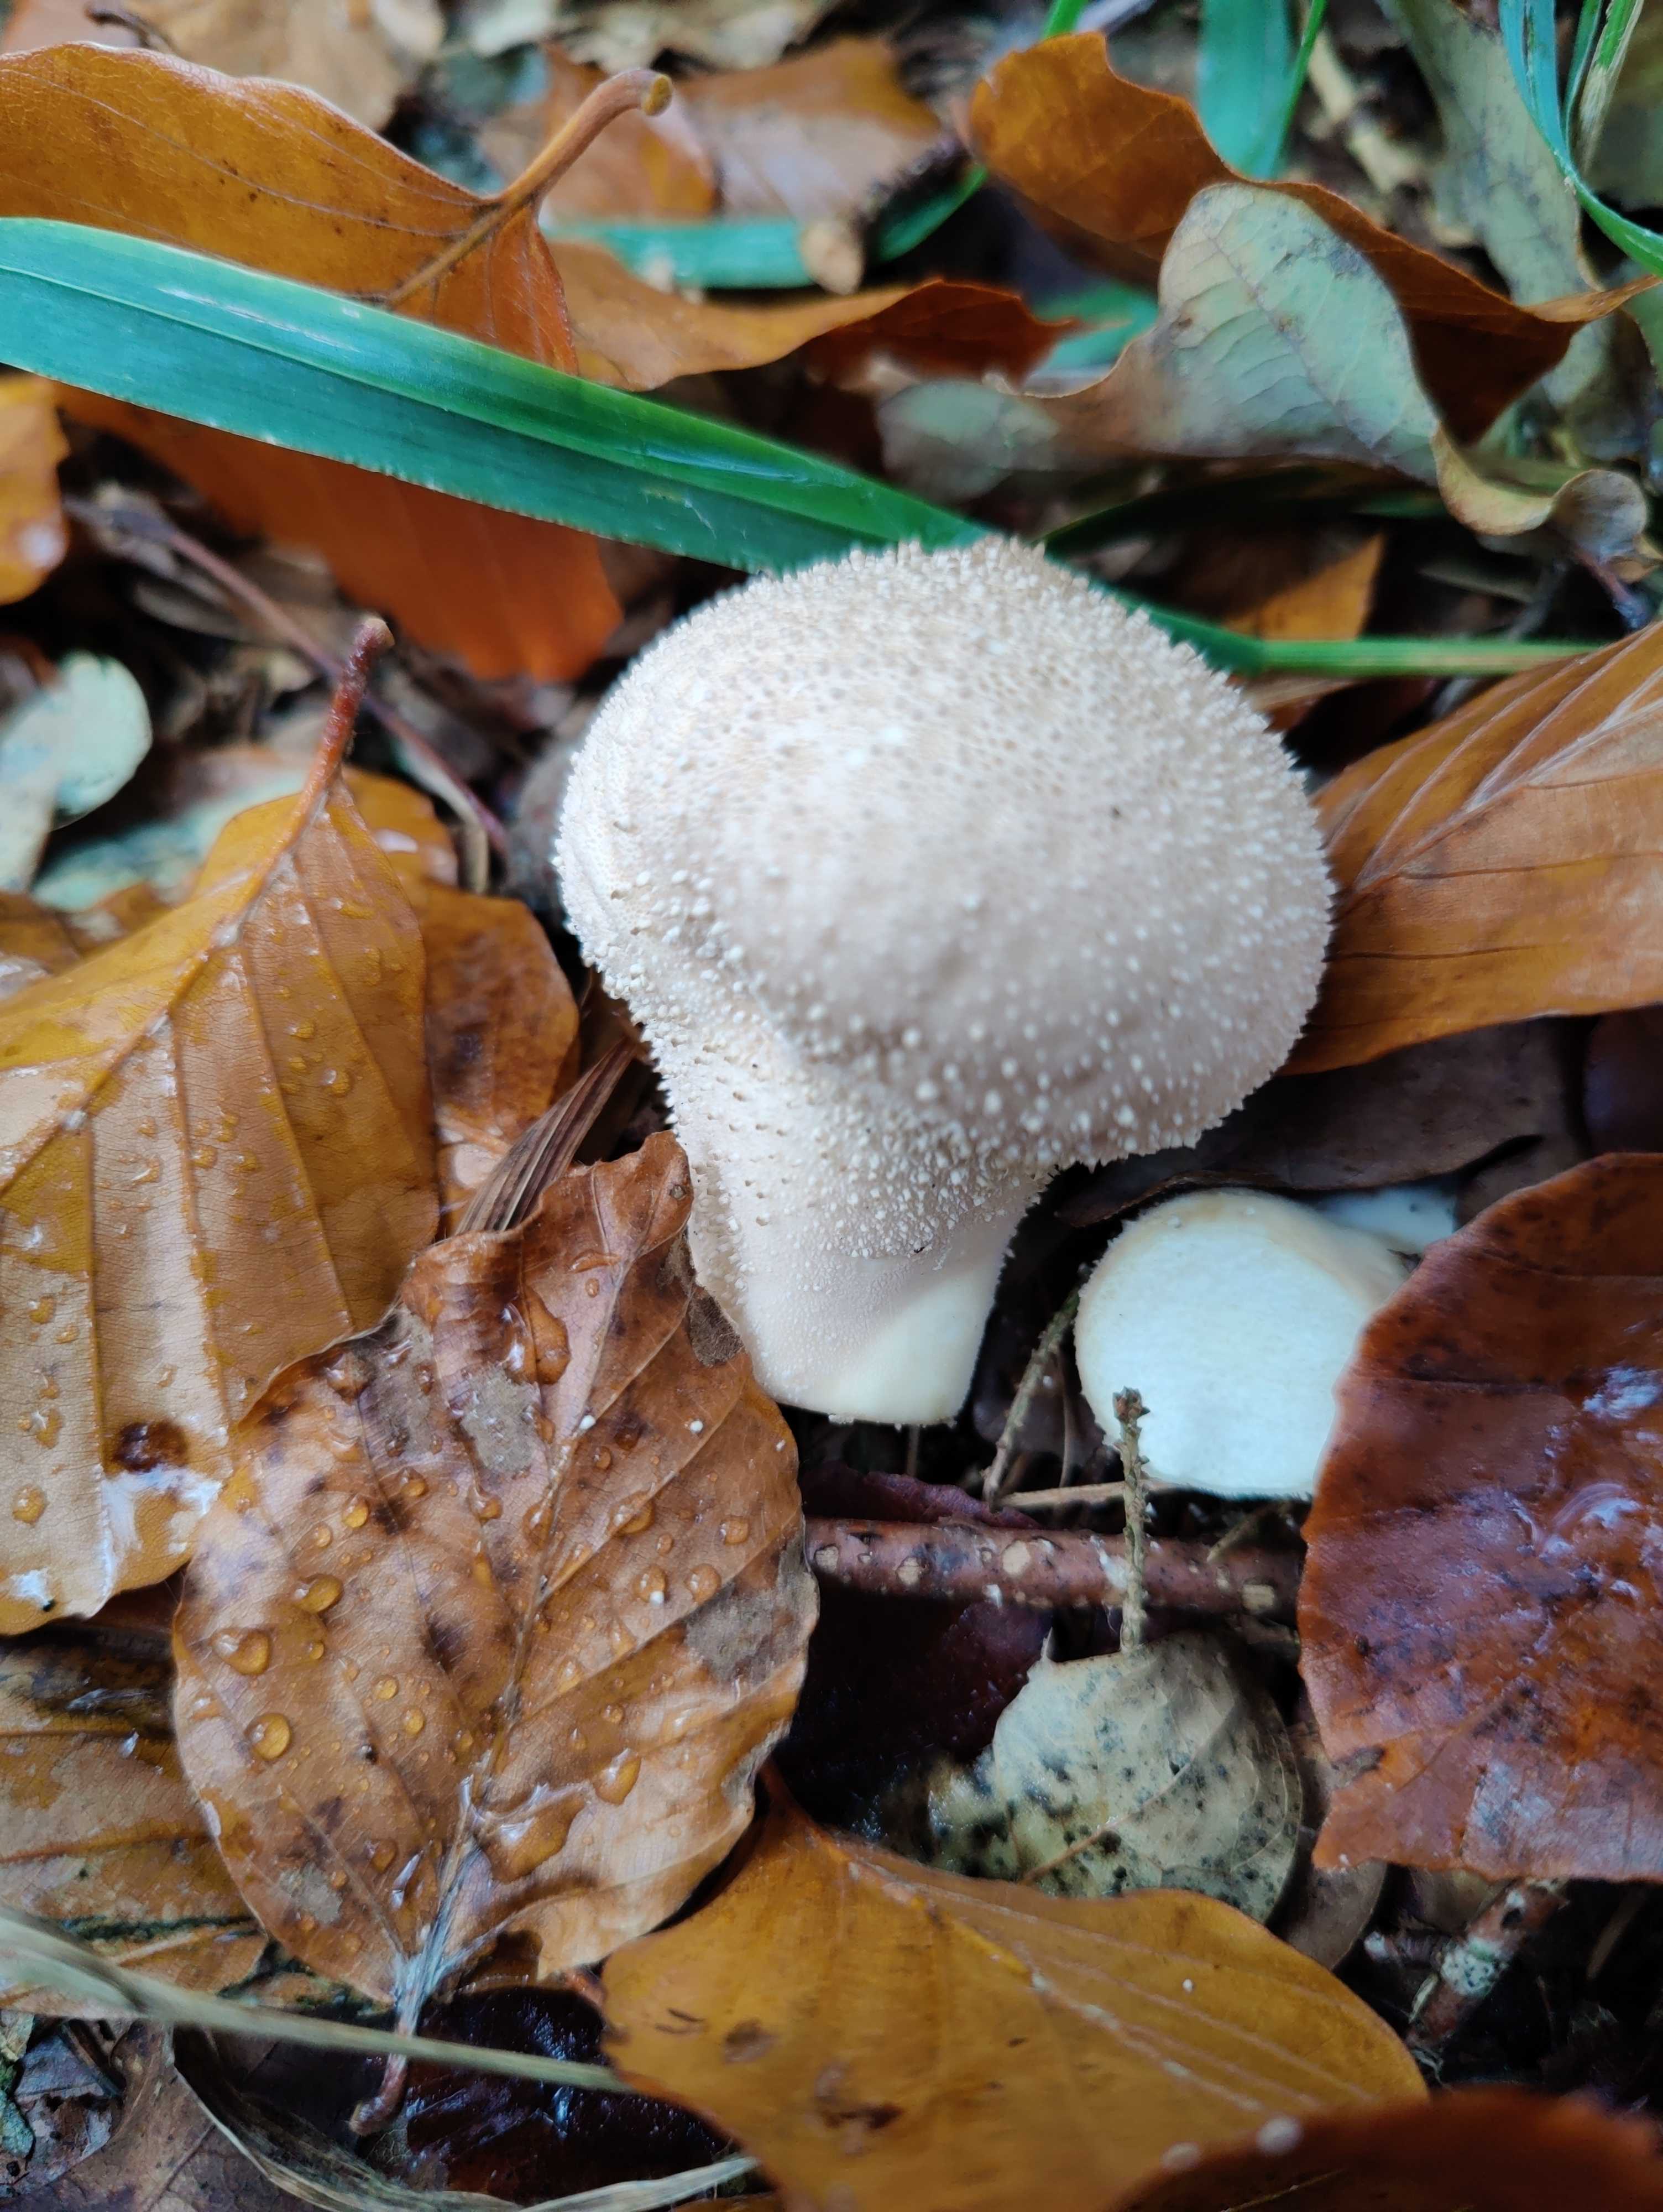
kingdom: Fungi
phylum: Basidiomycota
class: Agaricomycetes
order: Agaricales
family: Lycoperdaceae
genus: Lycoperdon
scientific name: Lycoperdon perlatum
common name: krystal-støvbold
